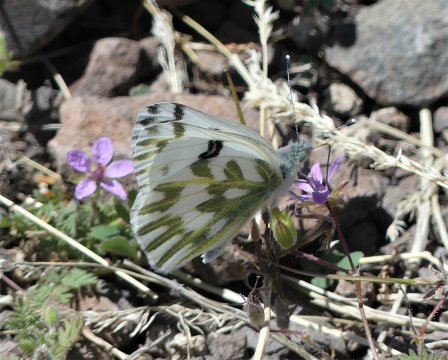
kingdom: Animalia
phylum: Arthropoda
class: Insecta
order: Lepidoptera
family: Pieridae
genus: Pontia
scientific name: Pontia beckerii
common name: Becker's White
